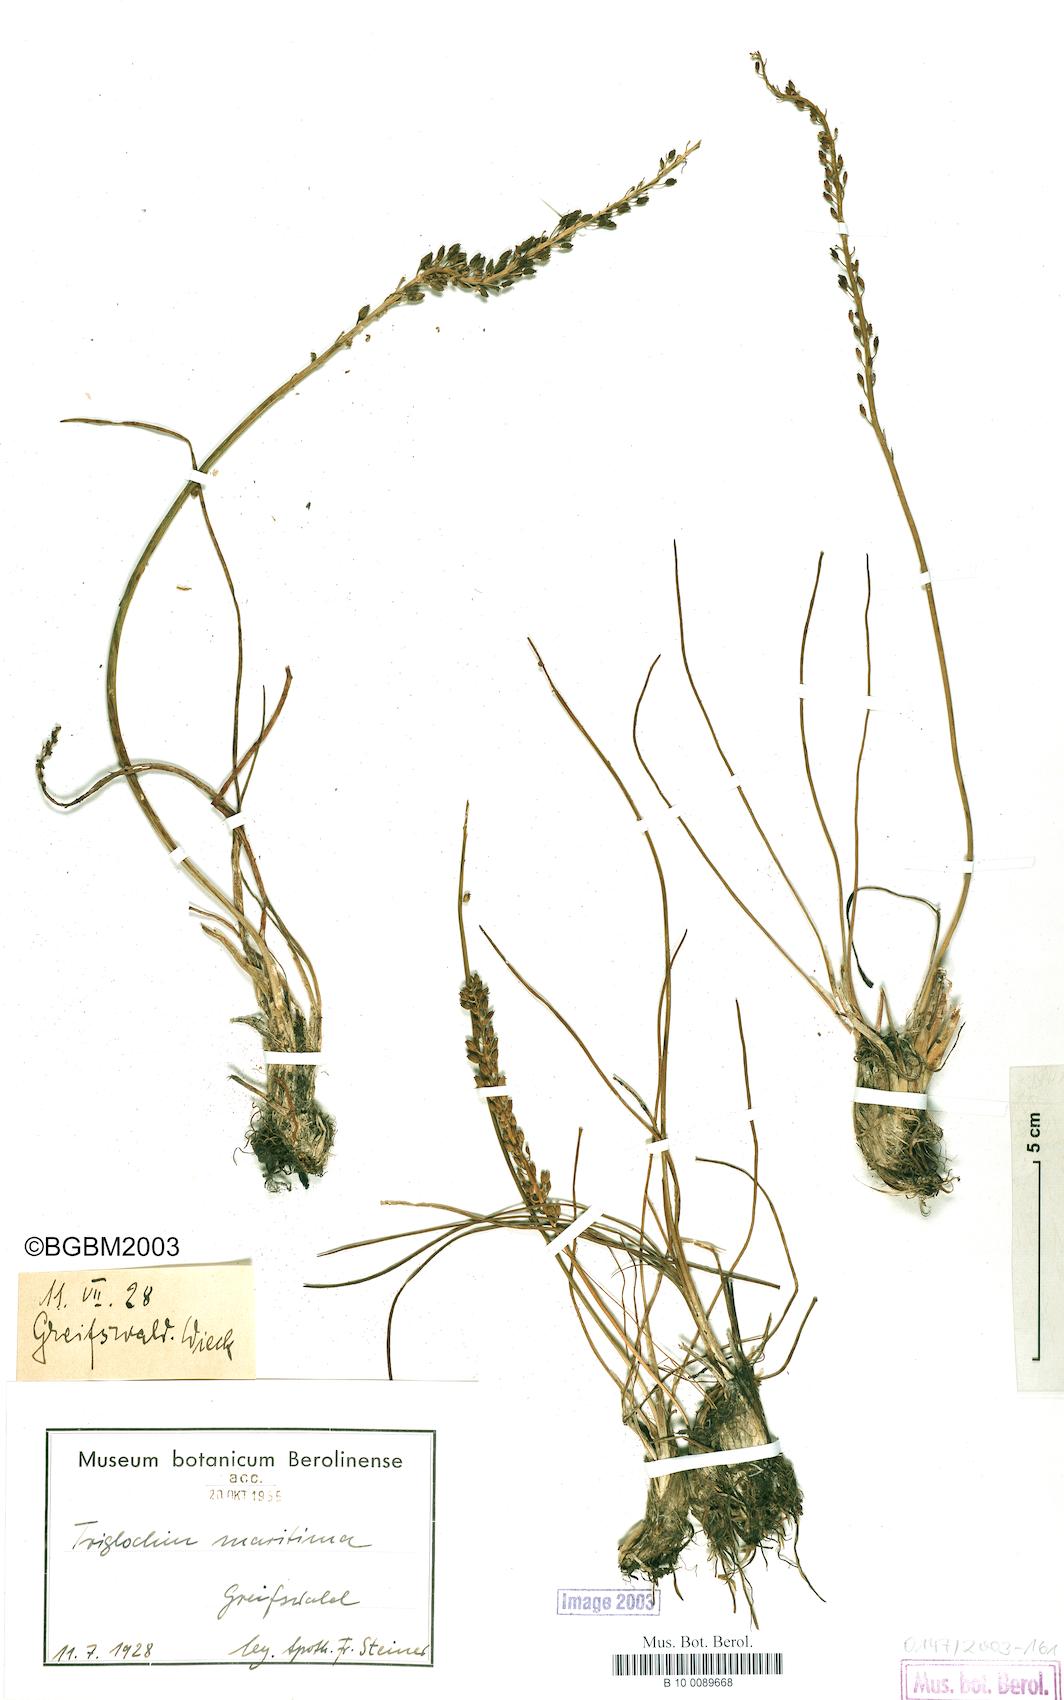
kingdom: Plantae
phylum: Tracheophyta
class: Liliopsida
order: Alismatales
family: Juncaginaceae
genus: Triglochin
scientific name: Triglochin maritima
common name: Sea arrowgrass
